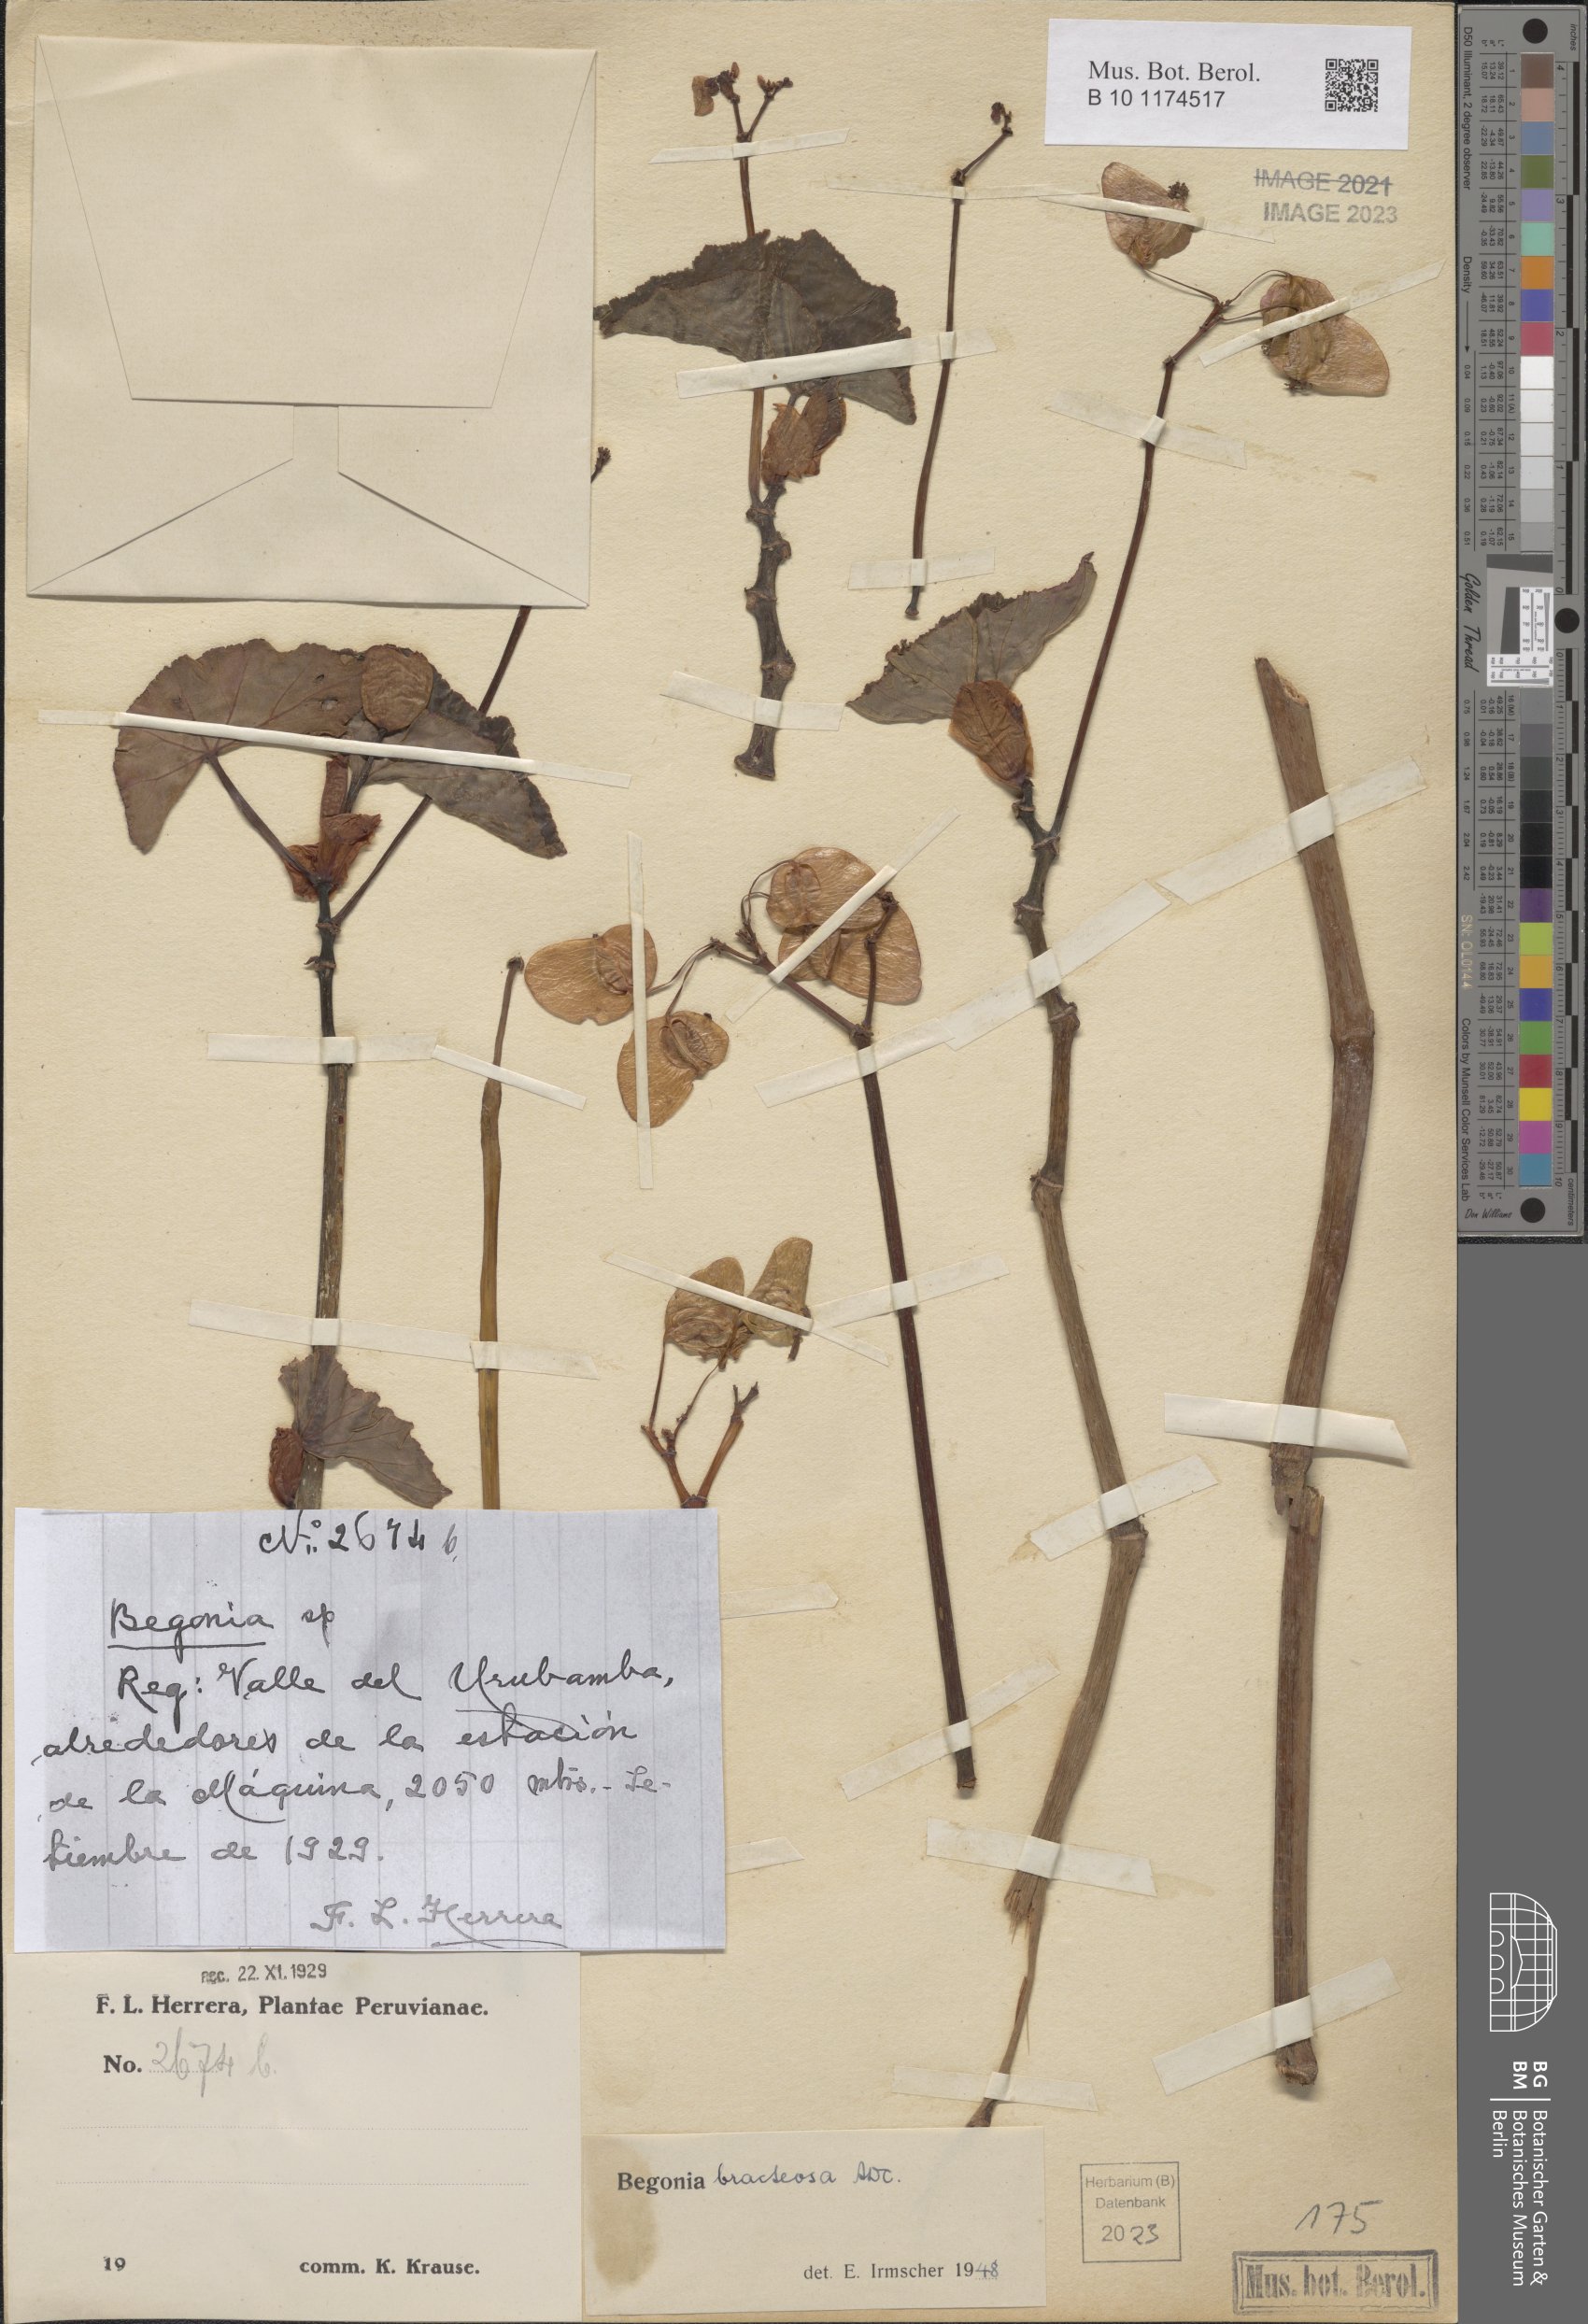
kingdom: Plantae
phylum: Tracheophyta
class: Magnoliopsida
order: Cucurbitales
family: Begoniaceae
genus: Begonia
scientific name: Begonia bracteosa
